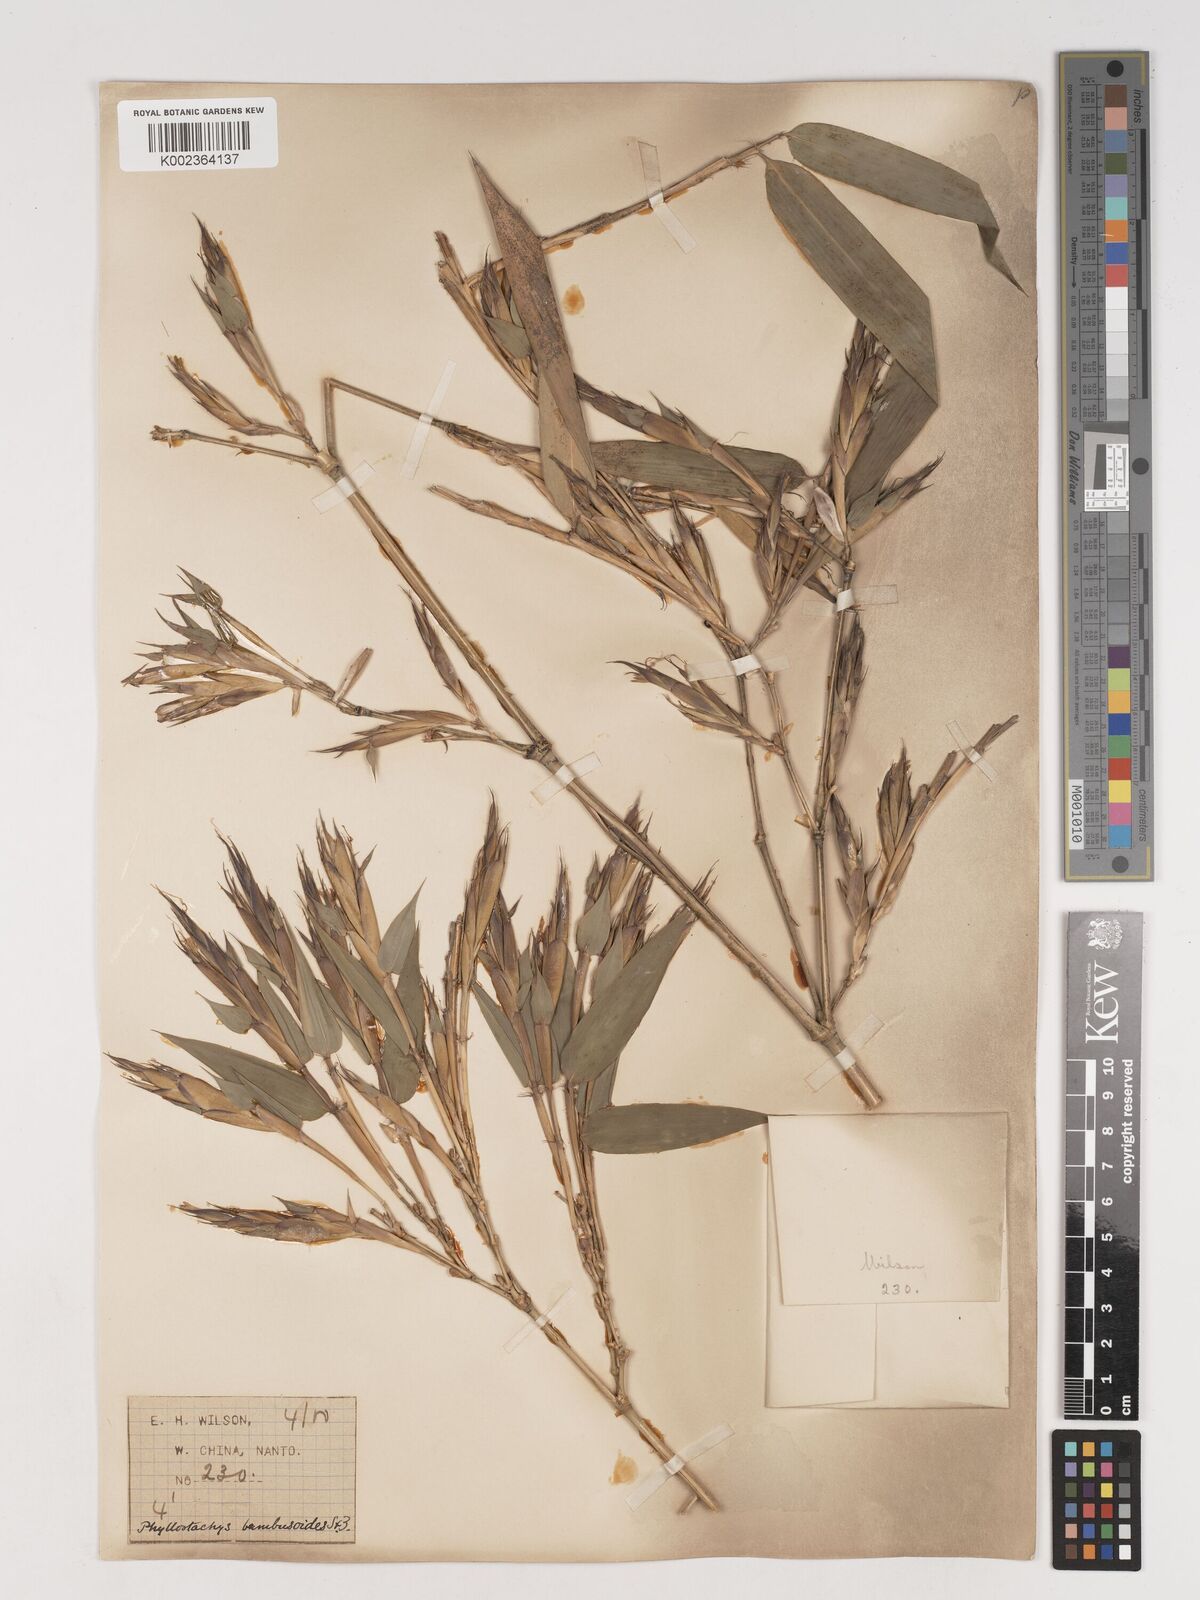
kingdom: Plantae
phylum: Tracheophyta
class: Liliopsida
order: Poales
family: Poaceae
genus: Phyllostachys
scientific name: Phyllostachys reticulata
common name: Bamboo
